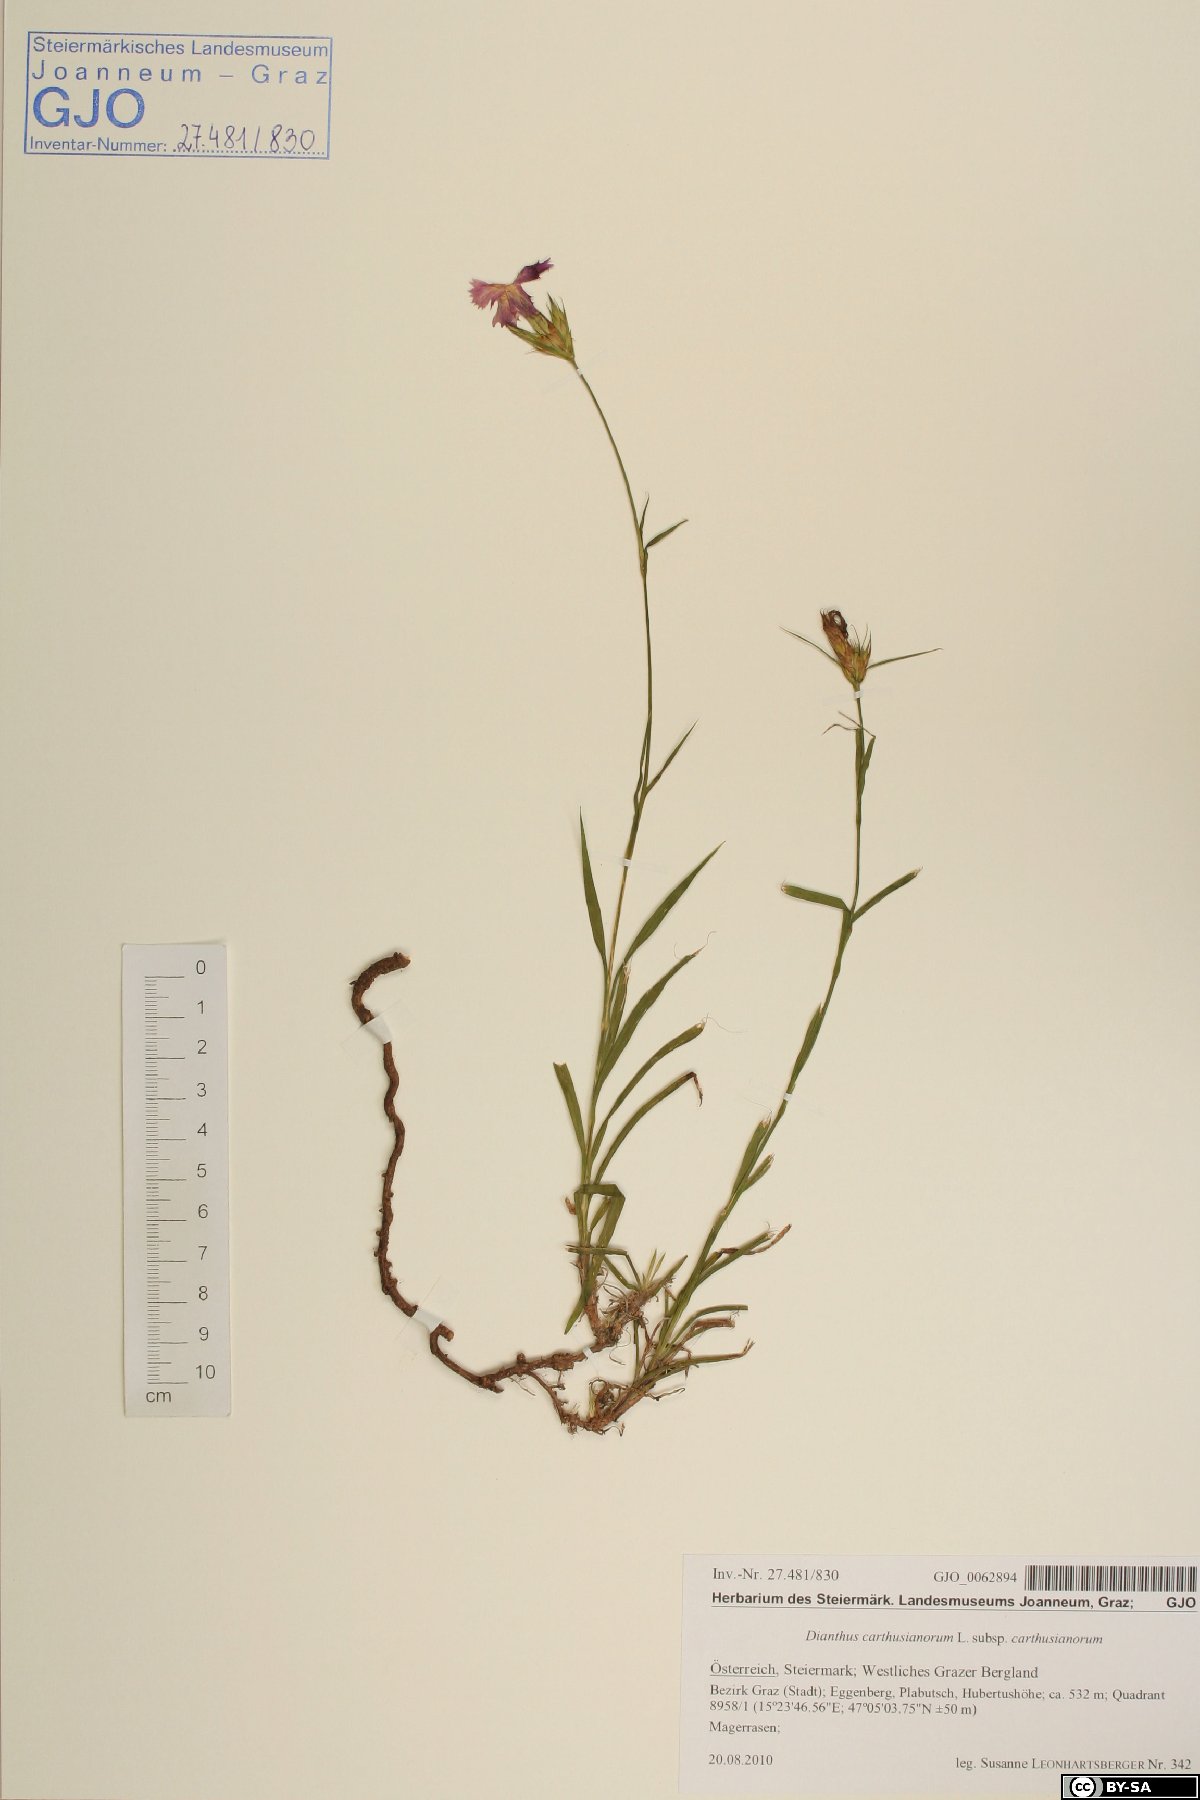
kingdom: Plantae
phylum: Tracheophyta
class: Magnoliopsida
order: Caryophyllales
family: Caryophyllaceae
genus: Dianthus
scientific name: Dianthus carthusianorum
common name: Carthusian pink
